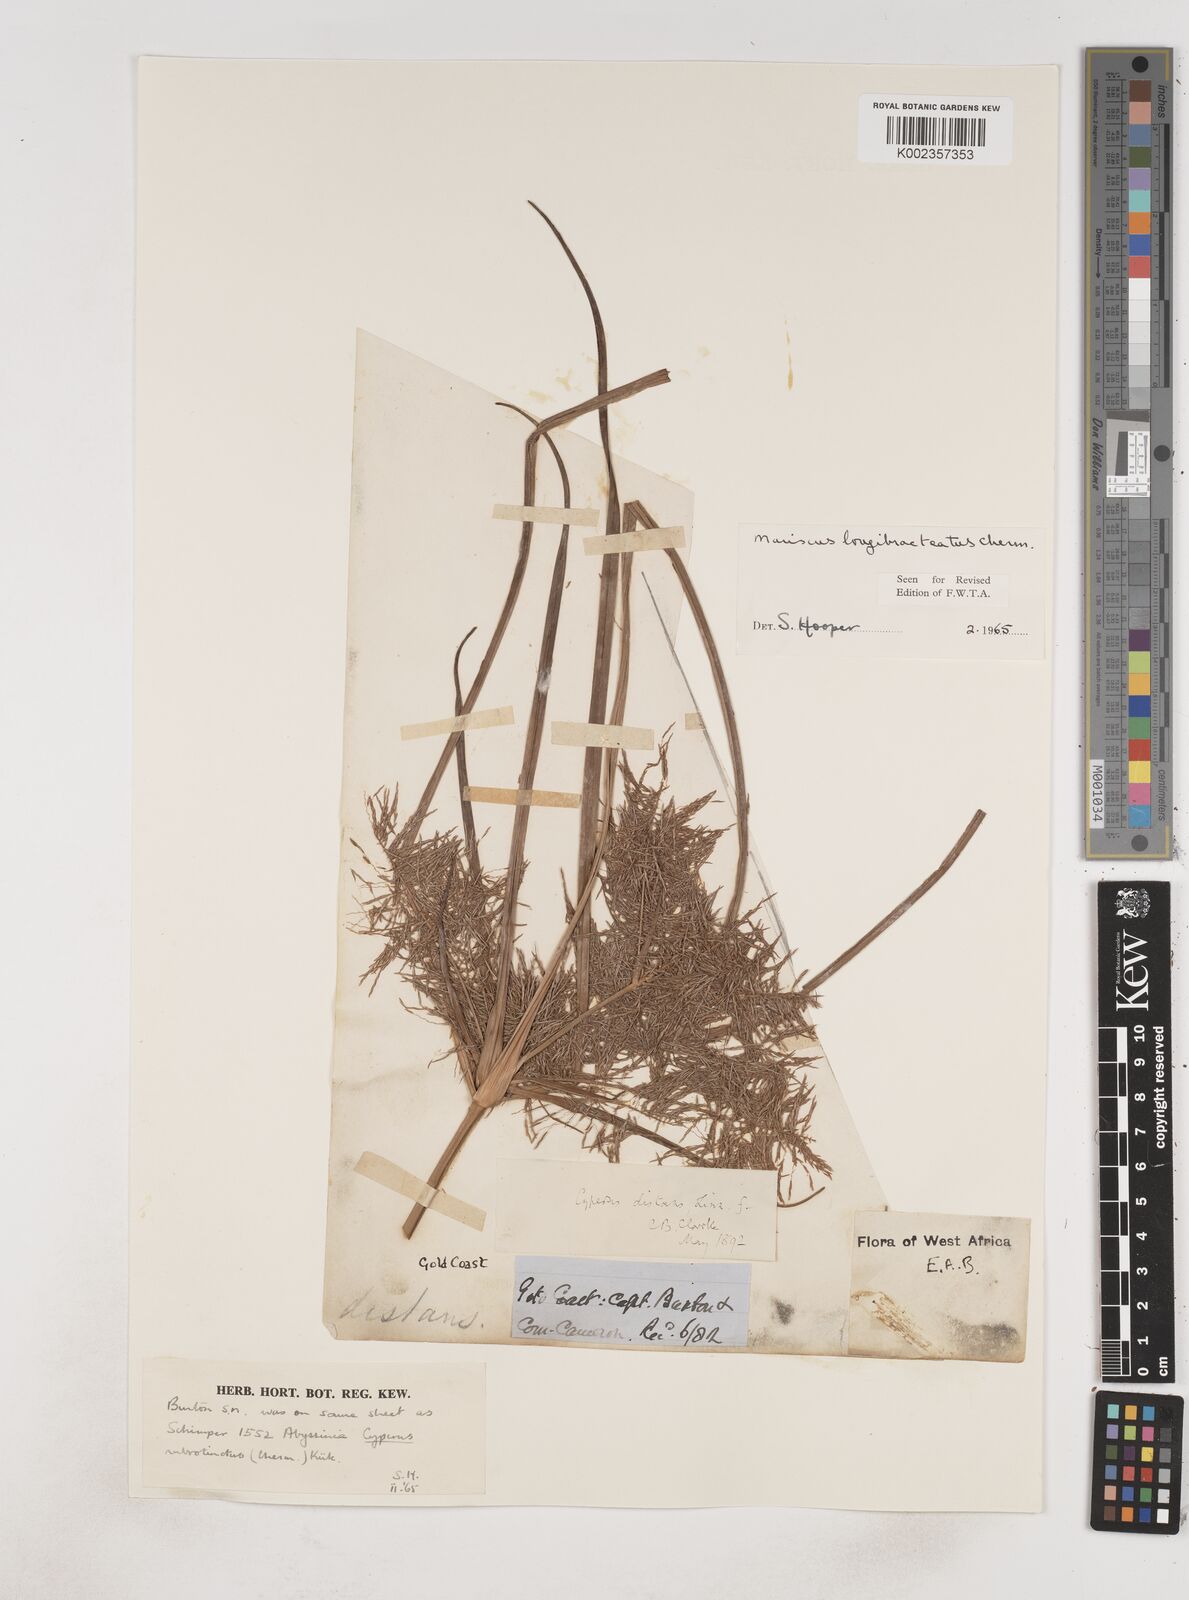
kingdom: Plantae
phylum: Tracheophyta
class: Liliopsida
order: Poales
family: Cyperaceae
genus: Cyperus
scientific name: Cyperus distans
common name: Slender cyperus
